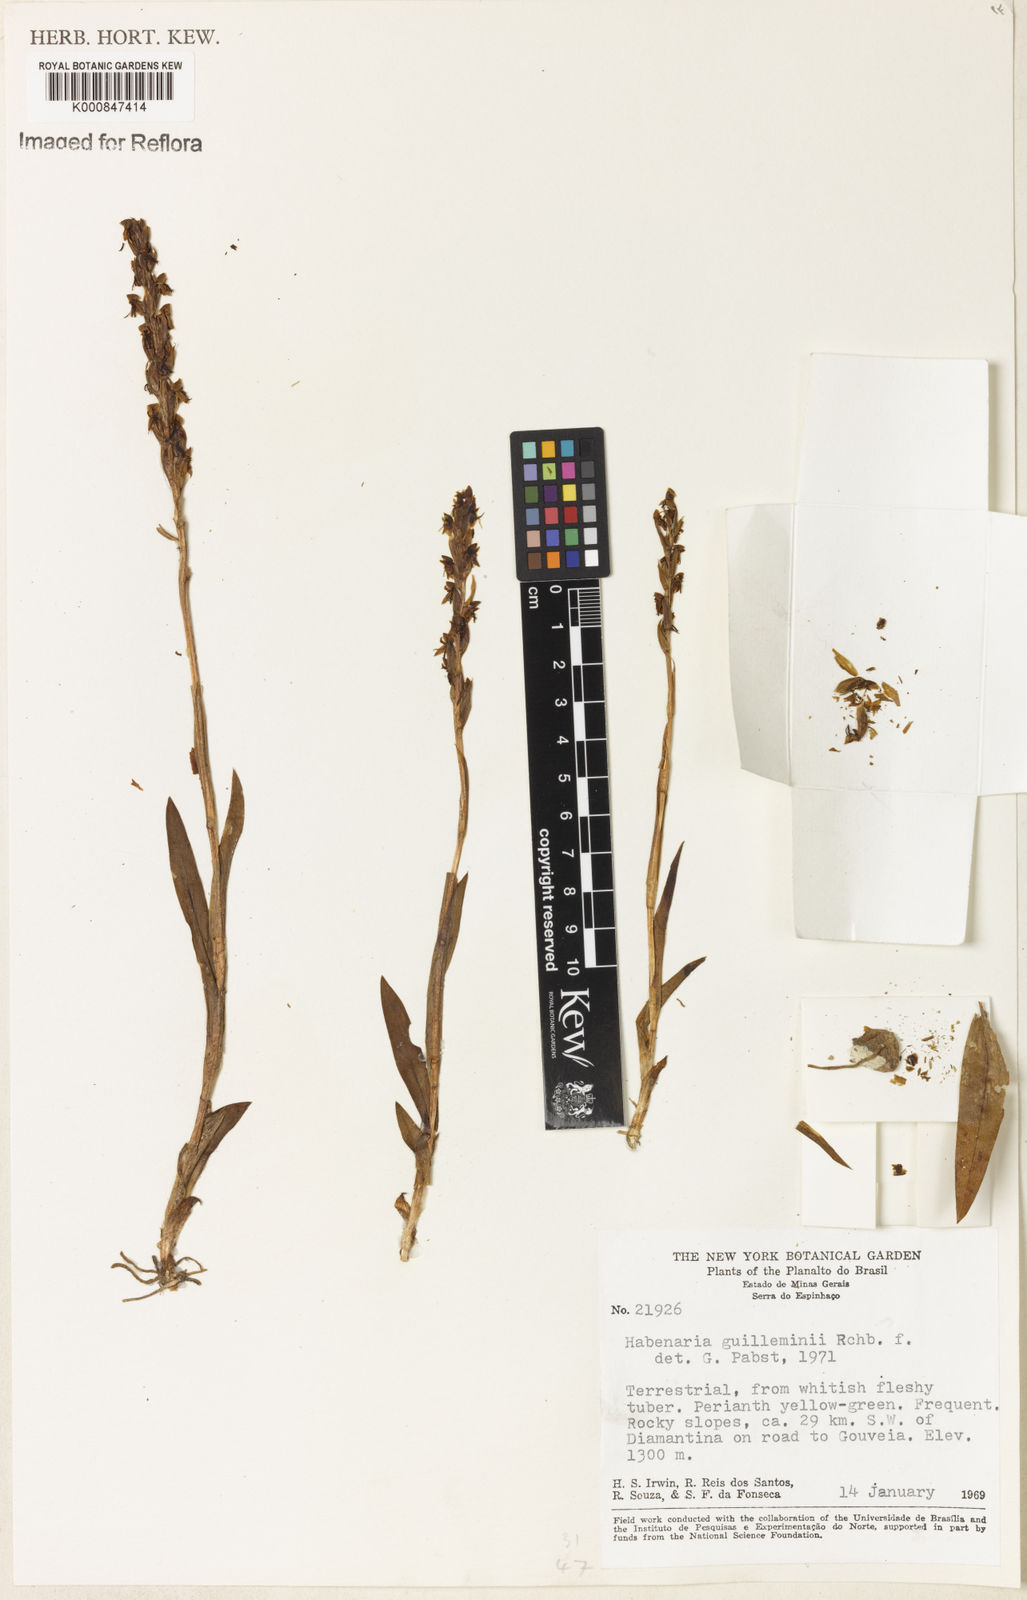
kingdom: Plantae
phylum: Tracheophyta
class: Liliopsida
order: Asparagales
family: Orchidaceae
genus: Habenaria
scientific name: Habenaria guilleminii
